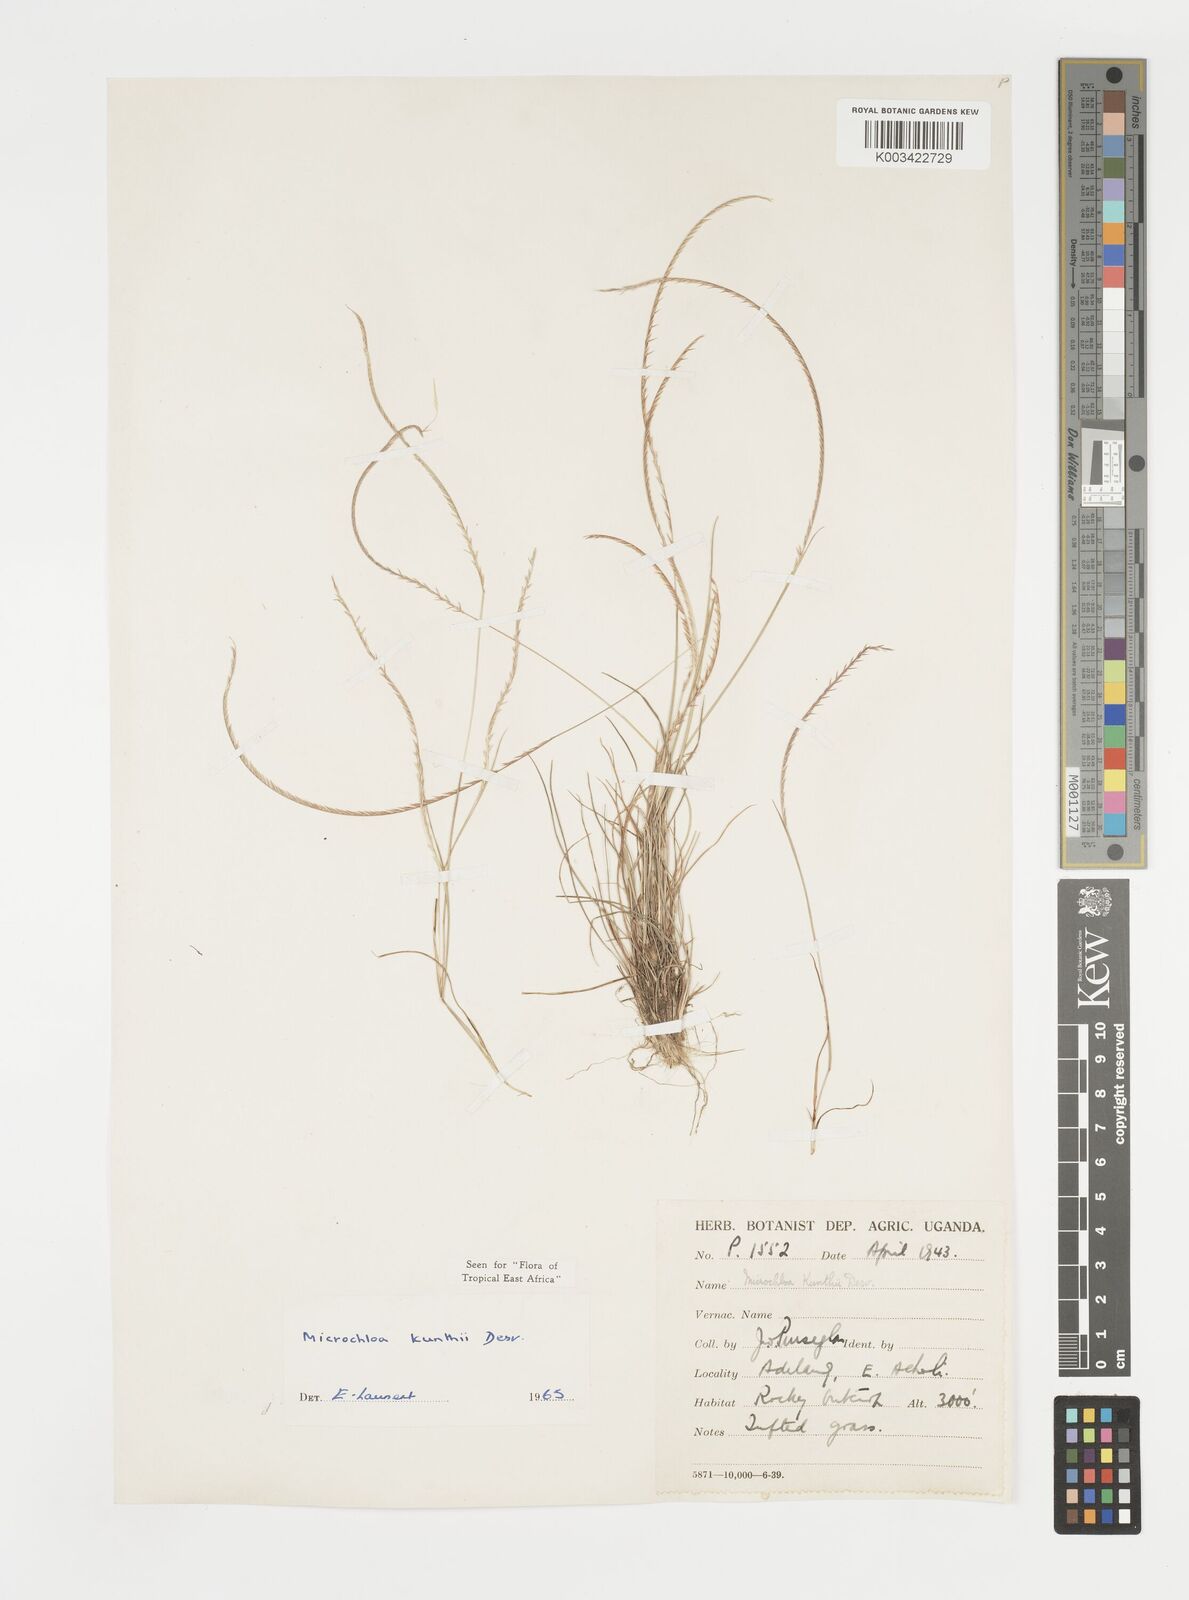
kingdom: Plantae
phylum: Tracheophyta
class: Liliopsida
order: Poales
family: Poaceae
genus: Microchloa
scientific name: Microchloa kunthii
